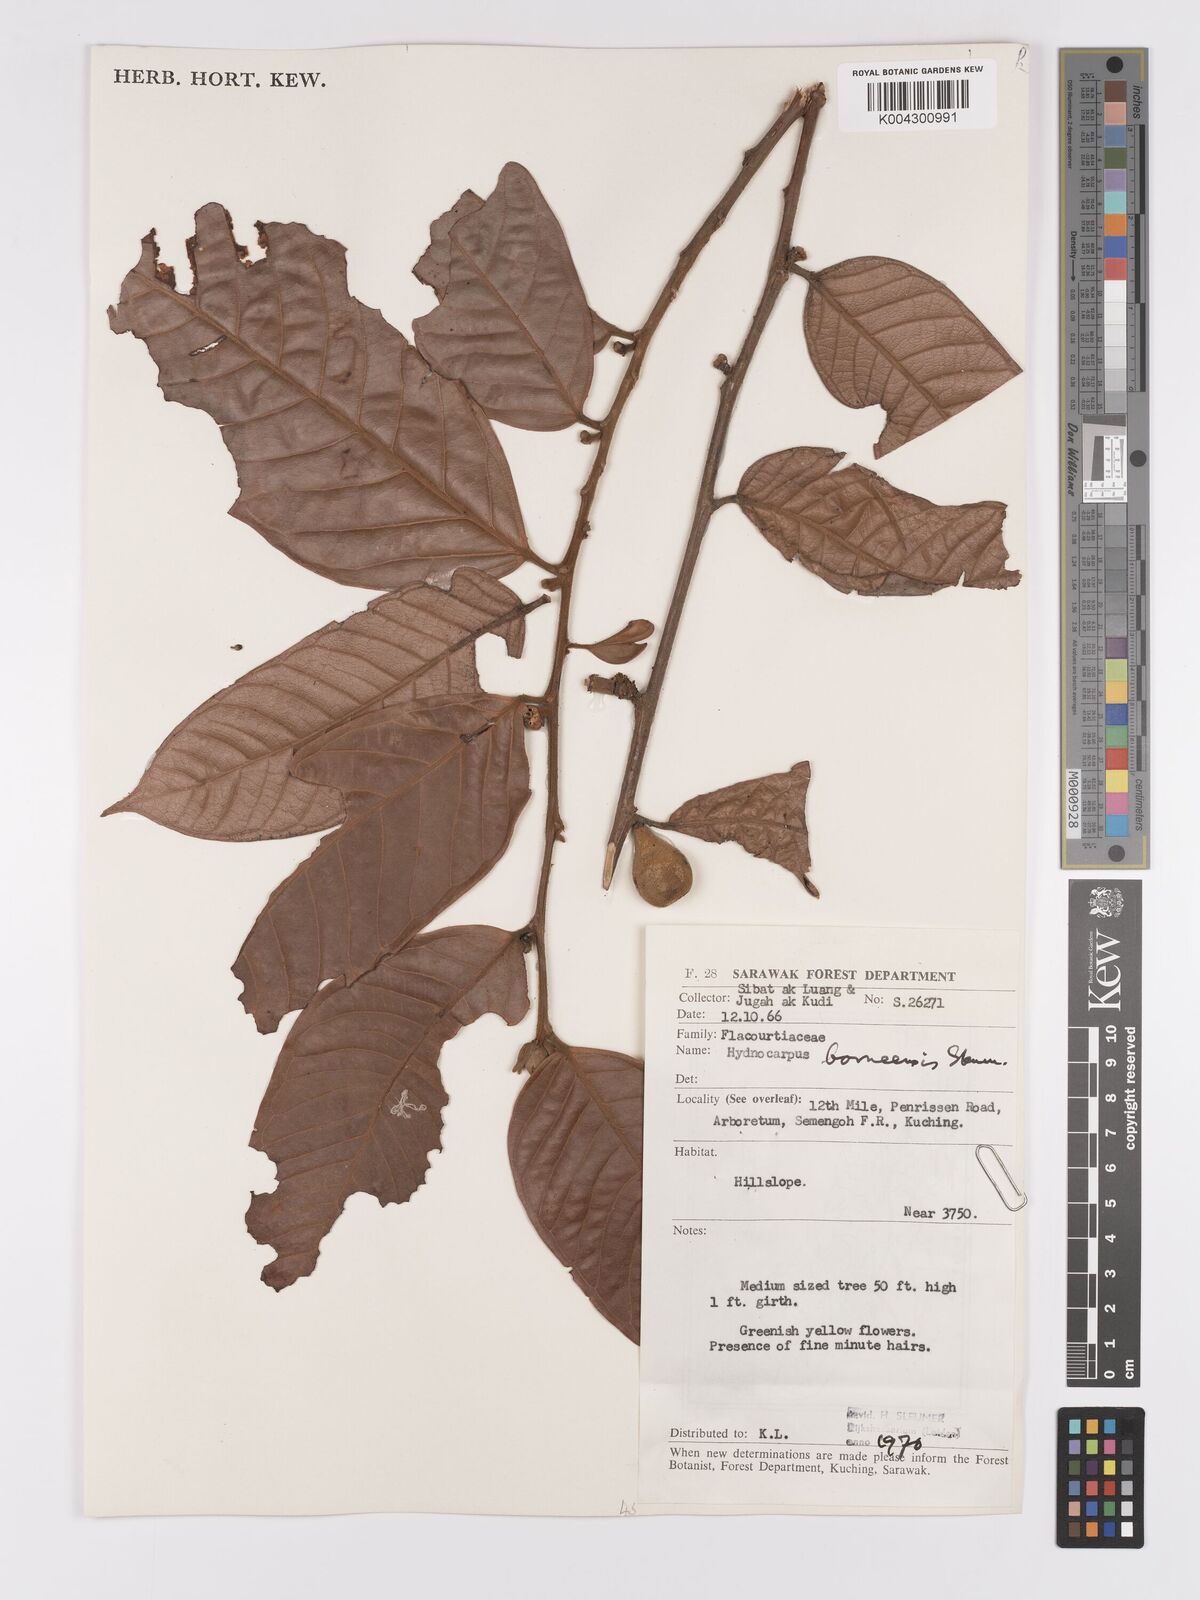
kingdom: Plantae
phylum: Tracheophyta
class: Magnoliopsida
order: Malpighiales
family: Achariaceae
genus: Hydnocarpus
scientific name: Hydnocarpus borneensis
